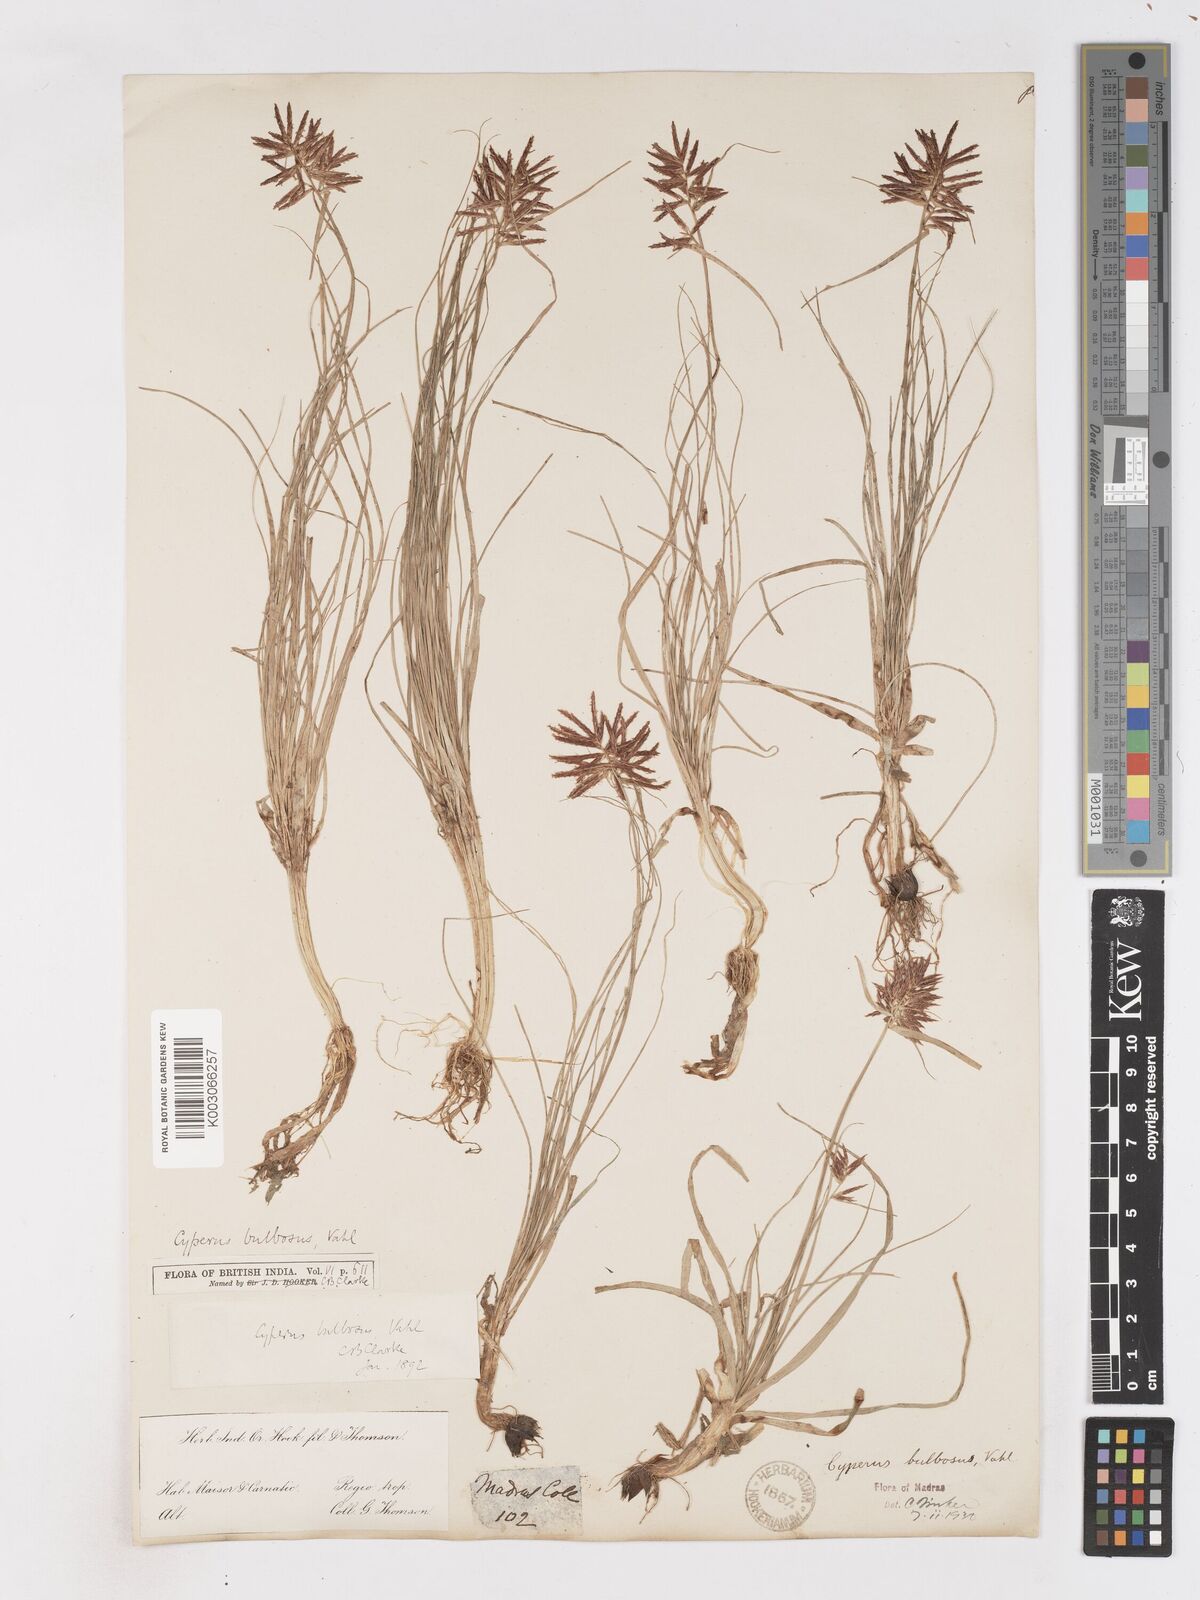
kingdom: Plantae
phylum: Tracheophyta
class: Liliopsida
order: Poales
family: Cyperaceae
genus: Cyperus
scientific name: Cyperus bulbosus
